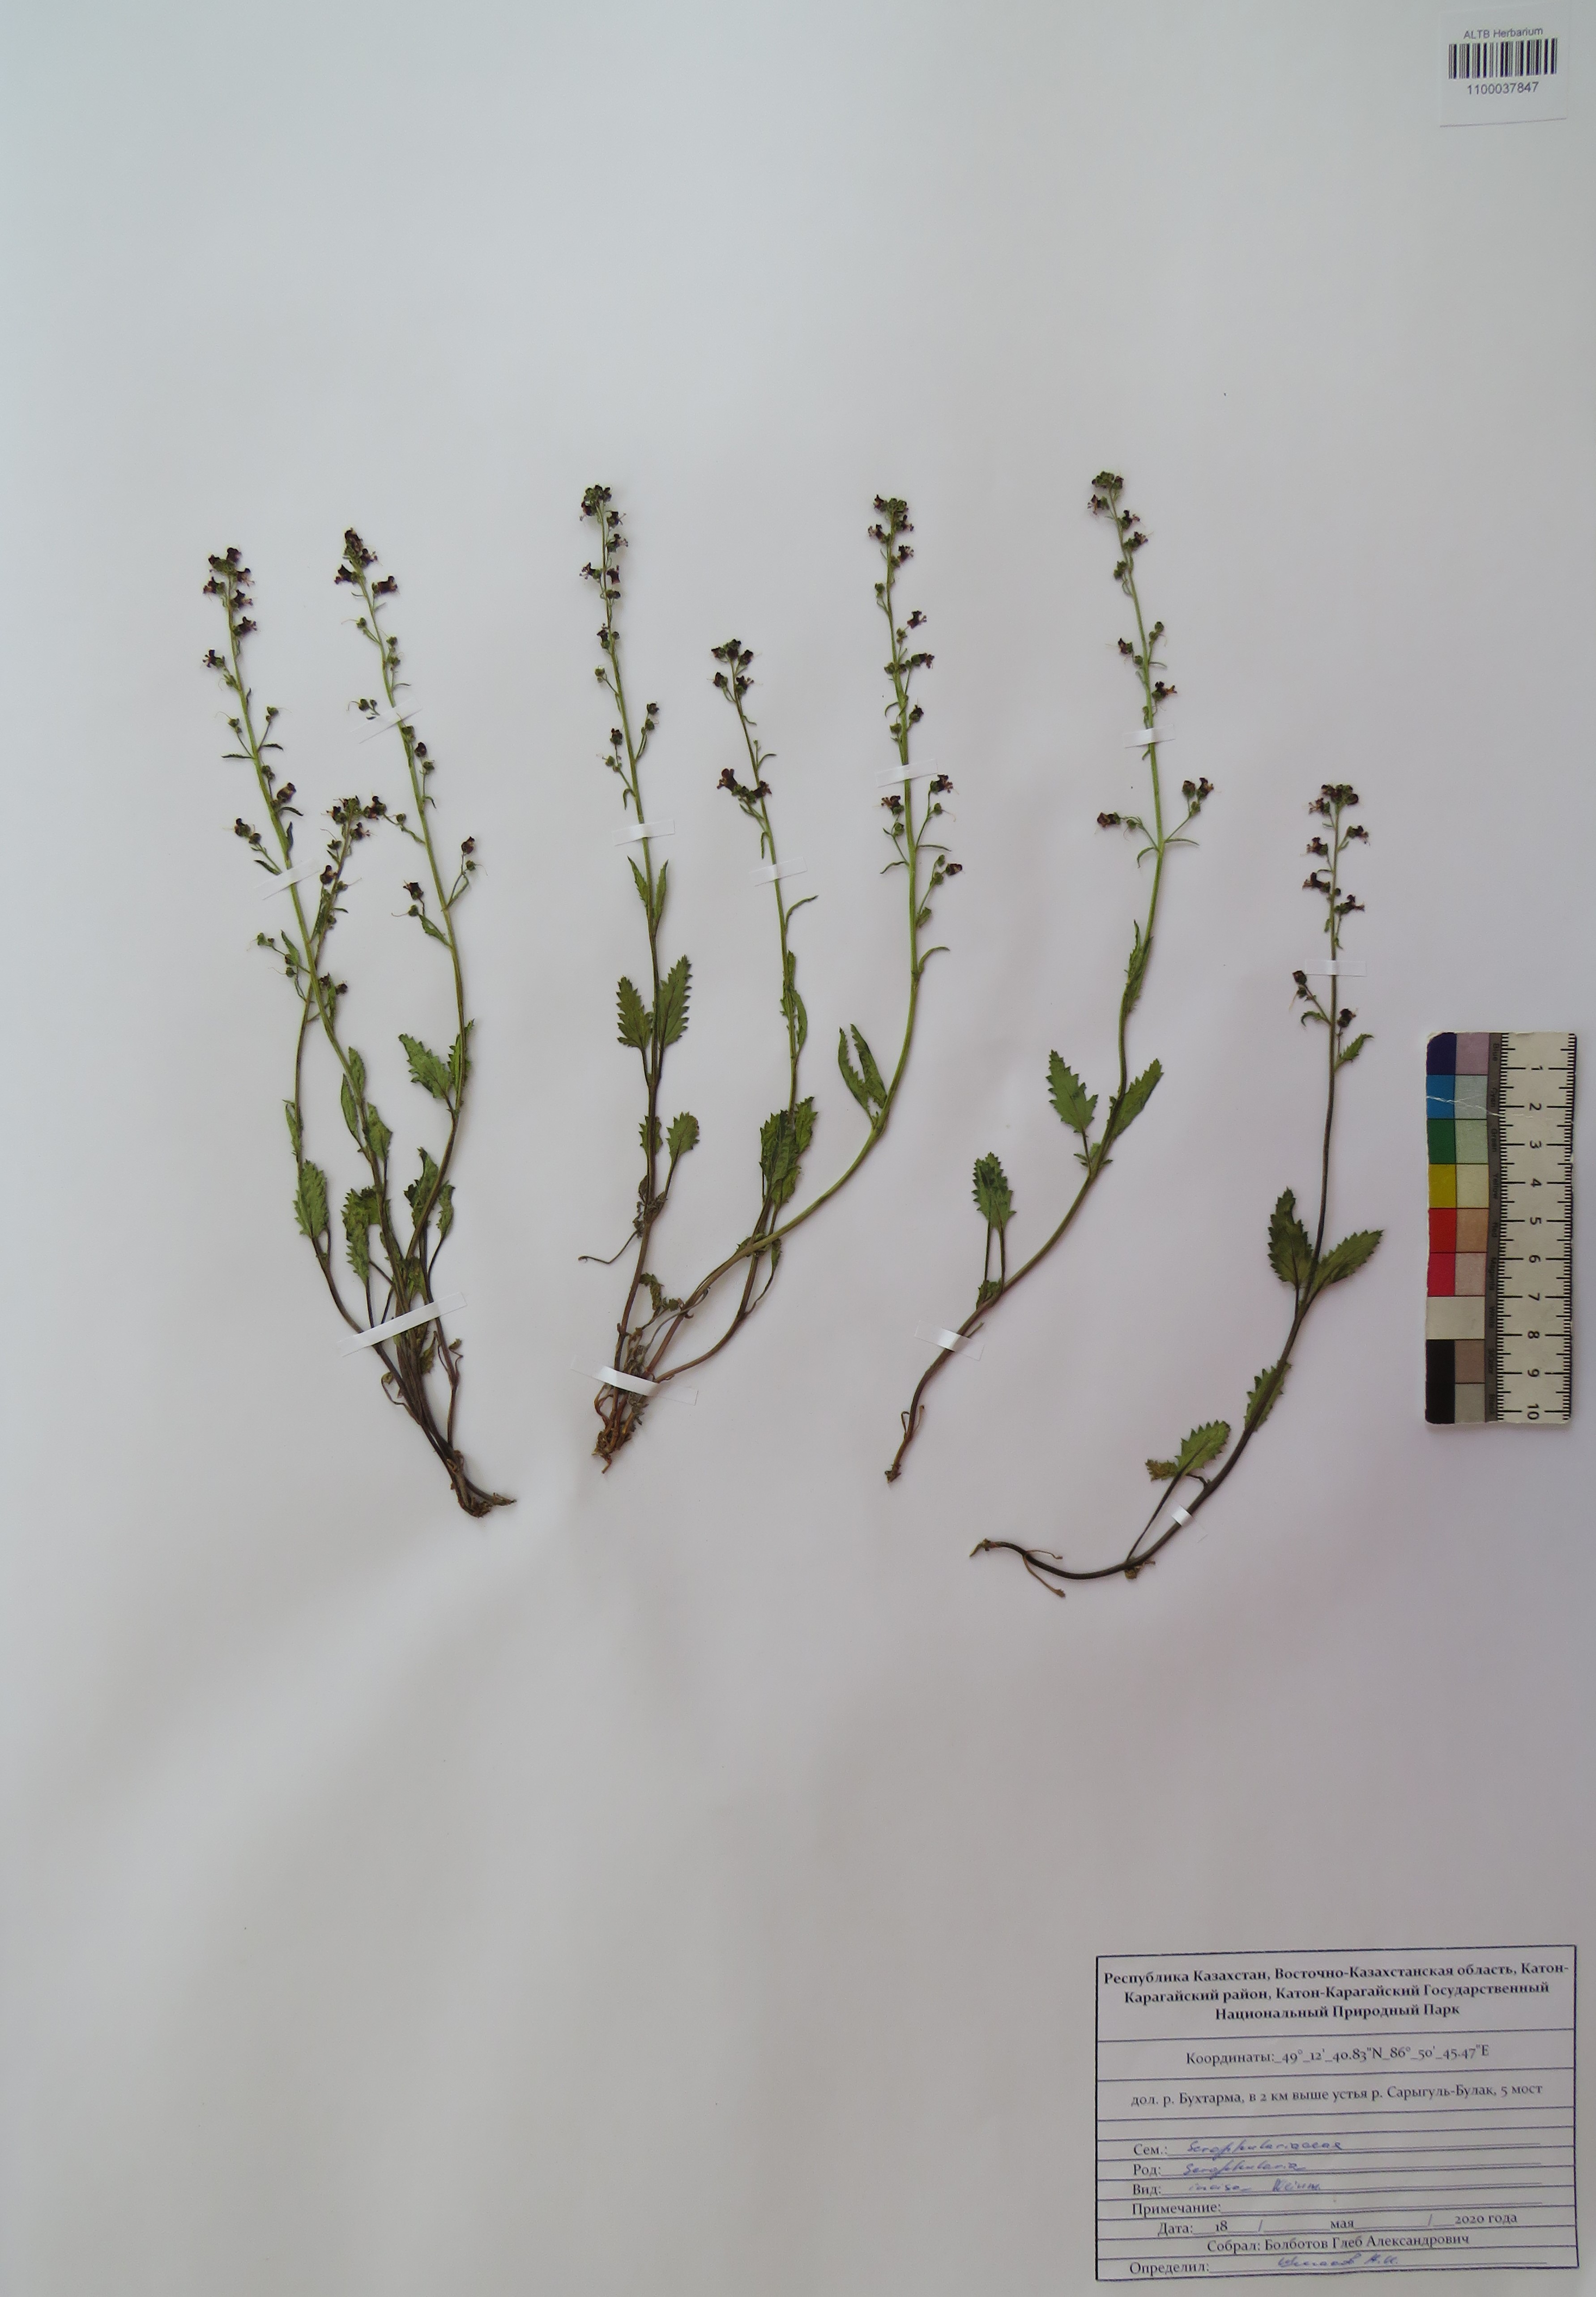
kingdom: Plantae
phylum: Tracheophyta
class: Magnoliopsida
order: Lamiales
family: Scrophulariaceae
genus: Scrophularia
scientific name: Scrophularia incisa
